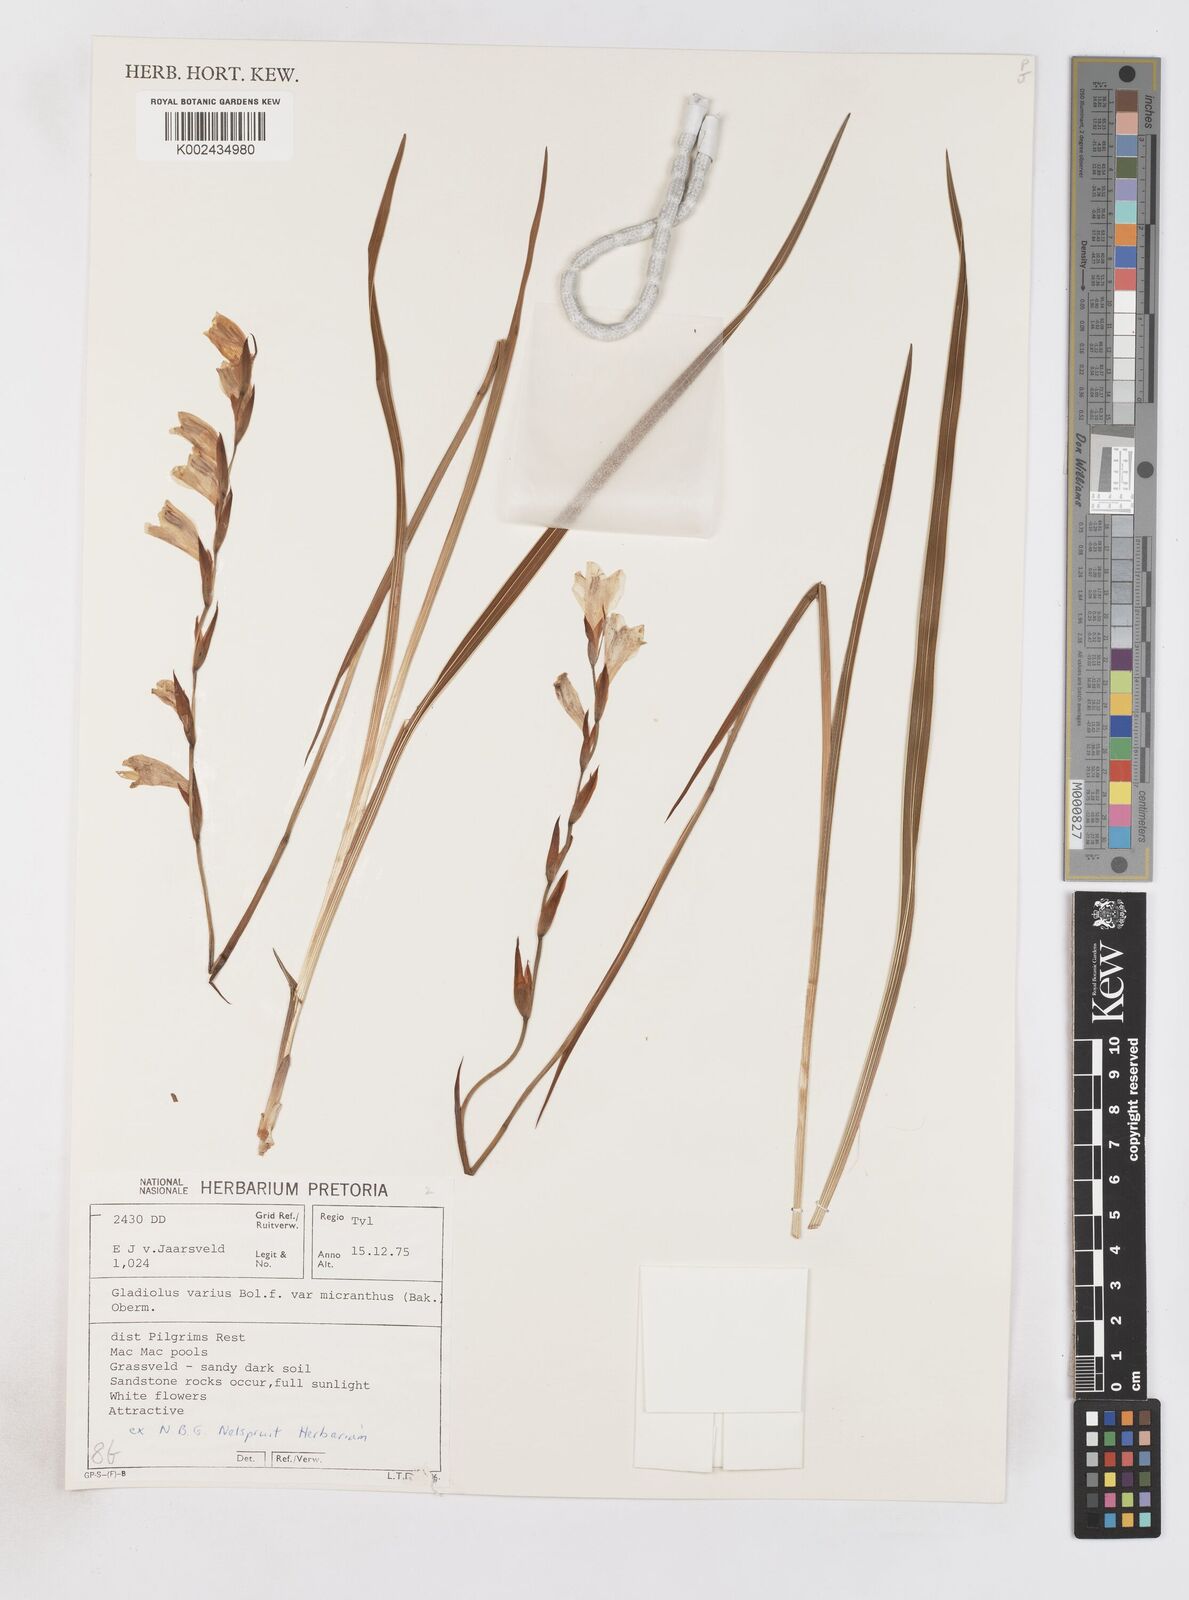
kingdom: Plantae
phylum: Tracheophyta
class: Liliopsida
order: Asparagales
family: Iridaceae
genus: Gladiolus
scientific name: Gladiolus ferrugineus
